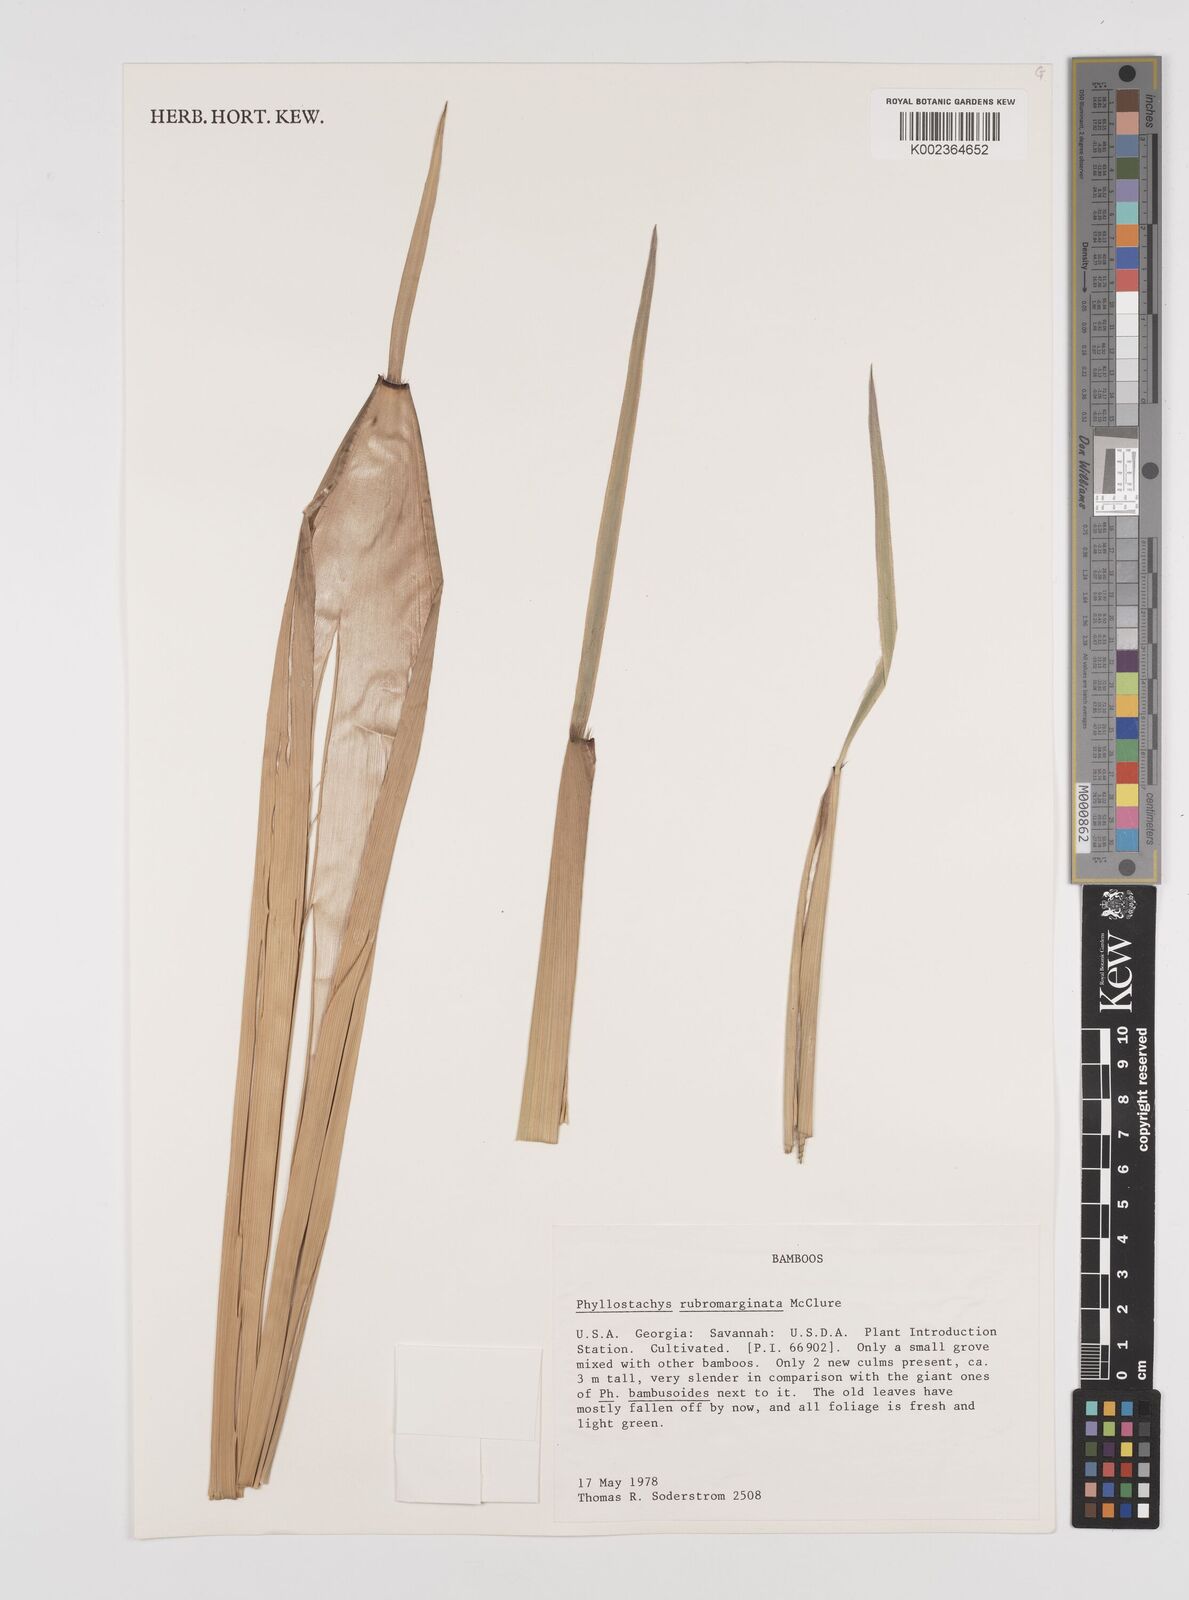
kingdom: Plantae
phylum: Tracheophyta
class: Liliopsida
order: Poales
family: Poaceae
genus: Phyllostachys
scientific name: Phyllostachys rubromarginata
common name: Reddish bamboo
